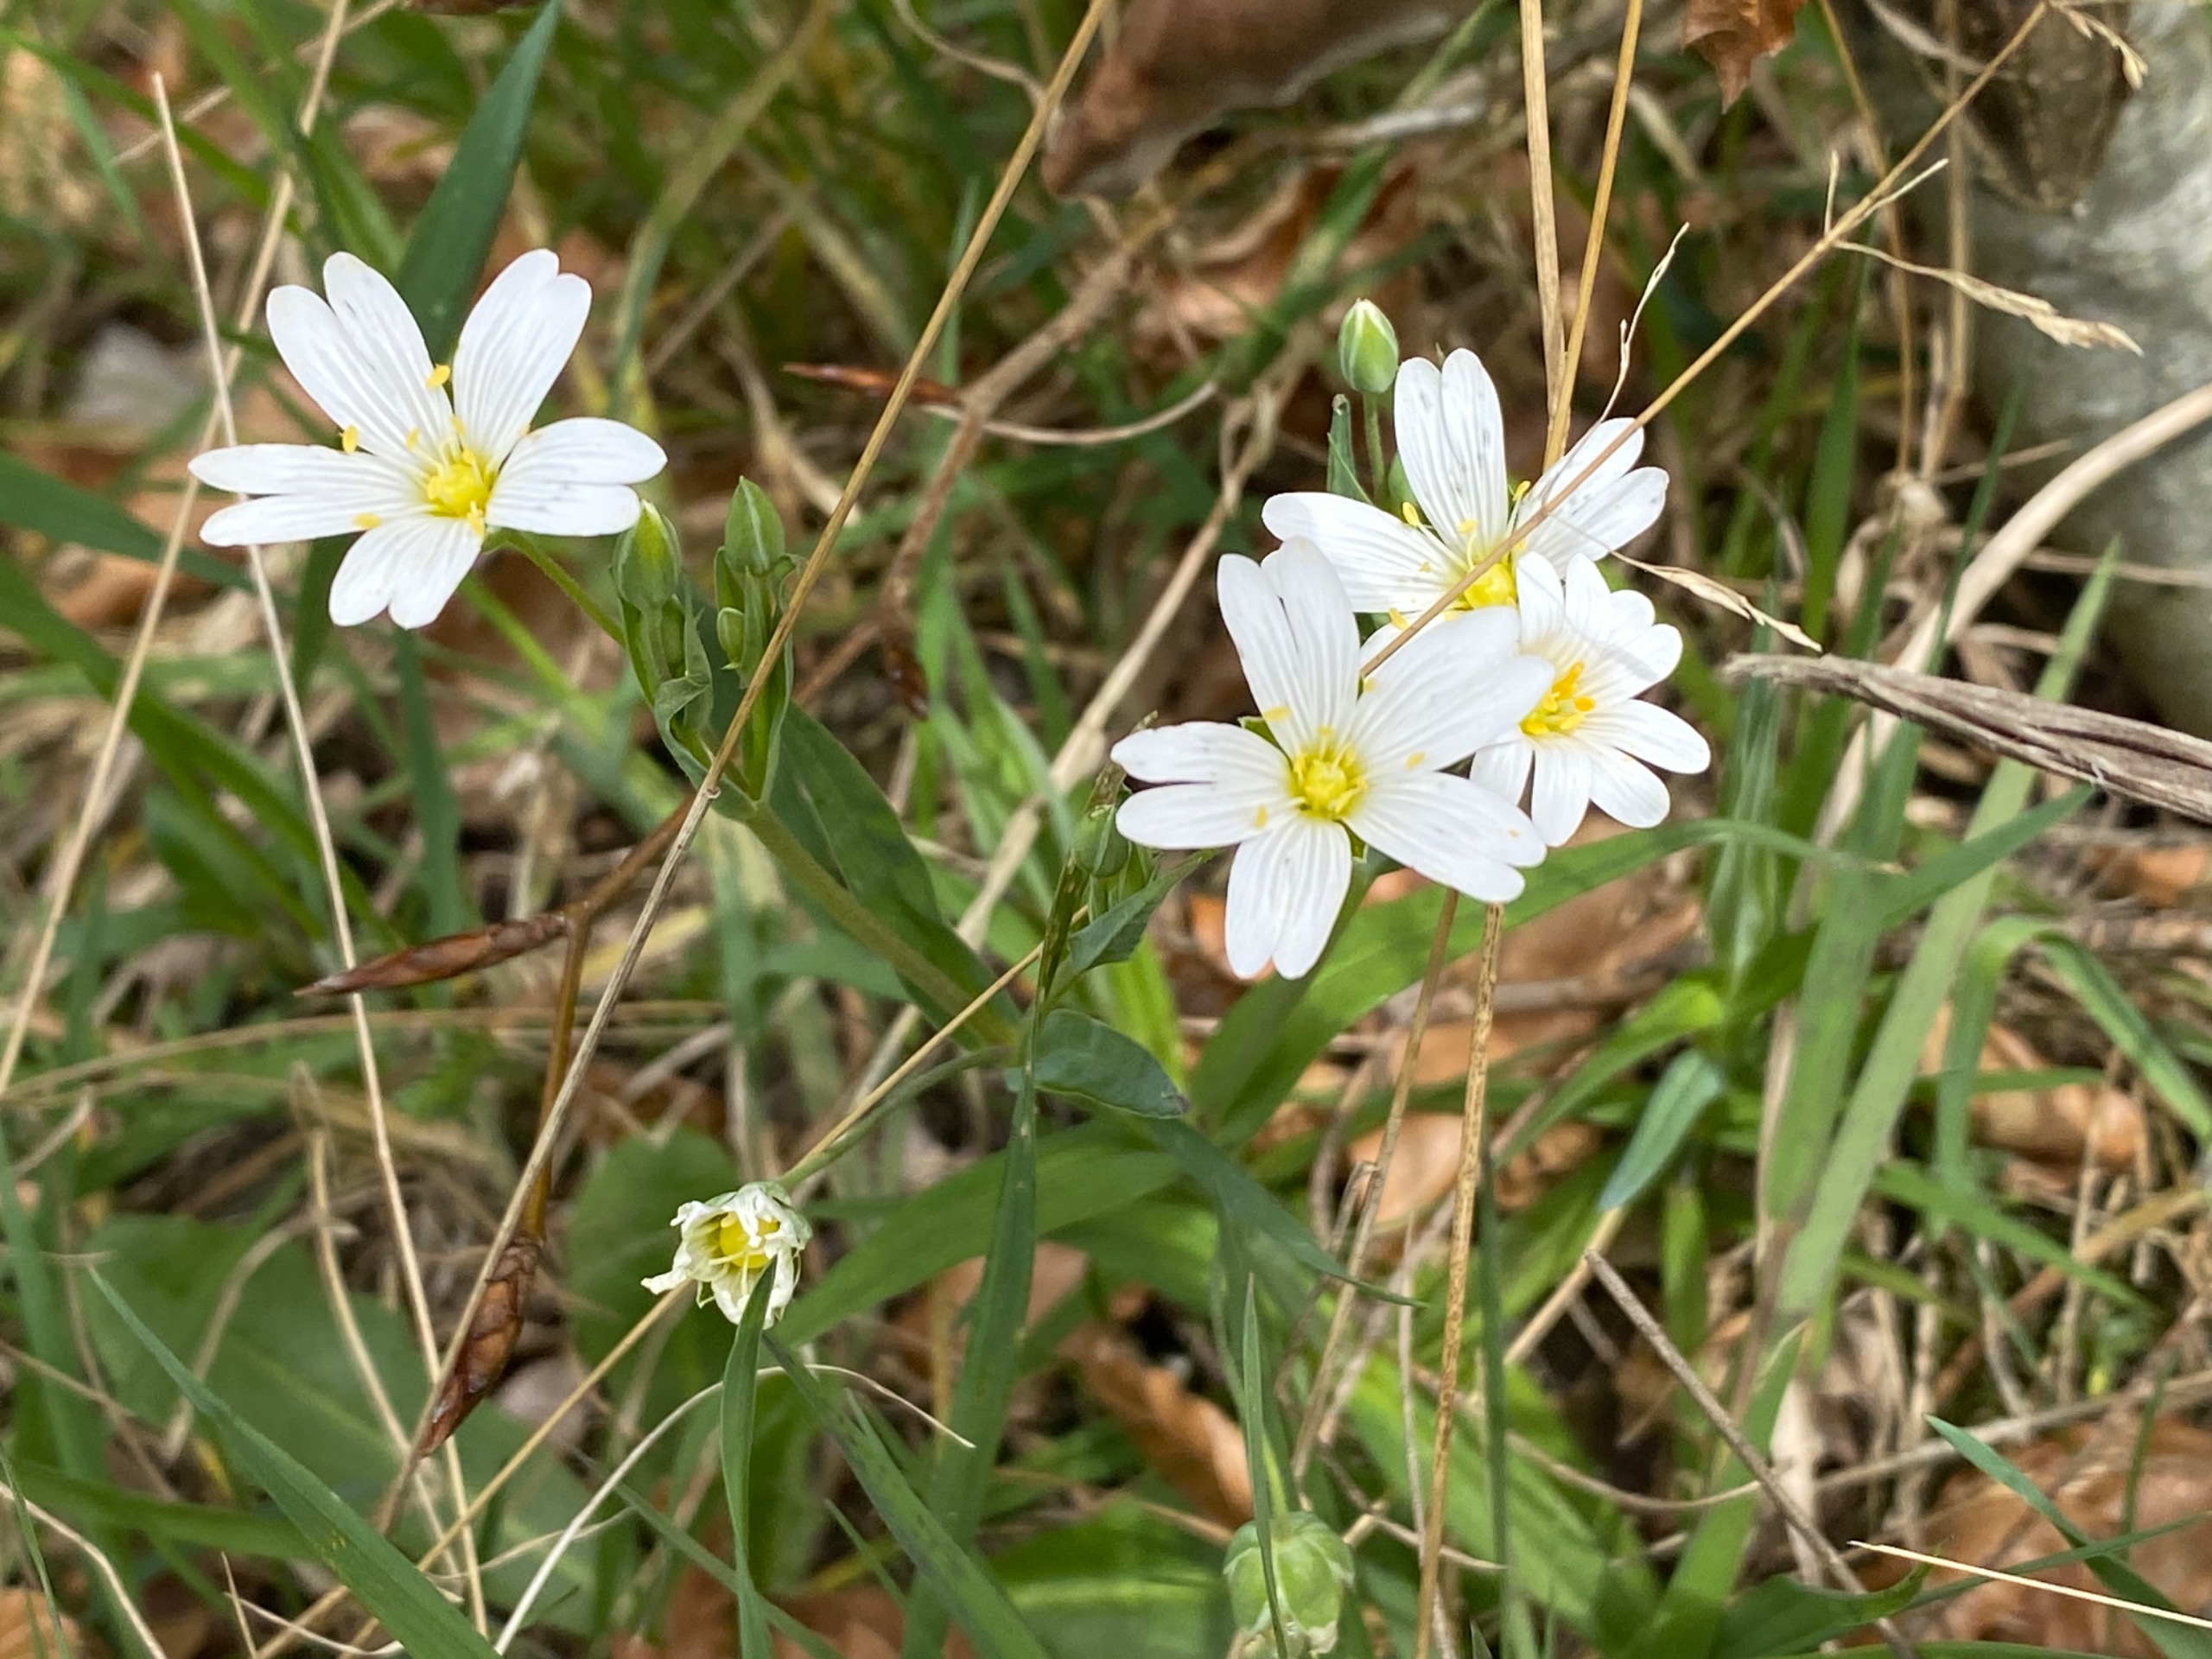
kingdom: Plantae
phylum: Tracheophyta
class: Magnoliopsida
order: Caryophyllales
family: Caryophyllaceae
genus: Rabelera
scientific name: Rabelera holostea
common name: Stor fladstjerne
